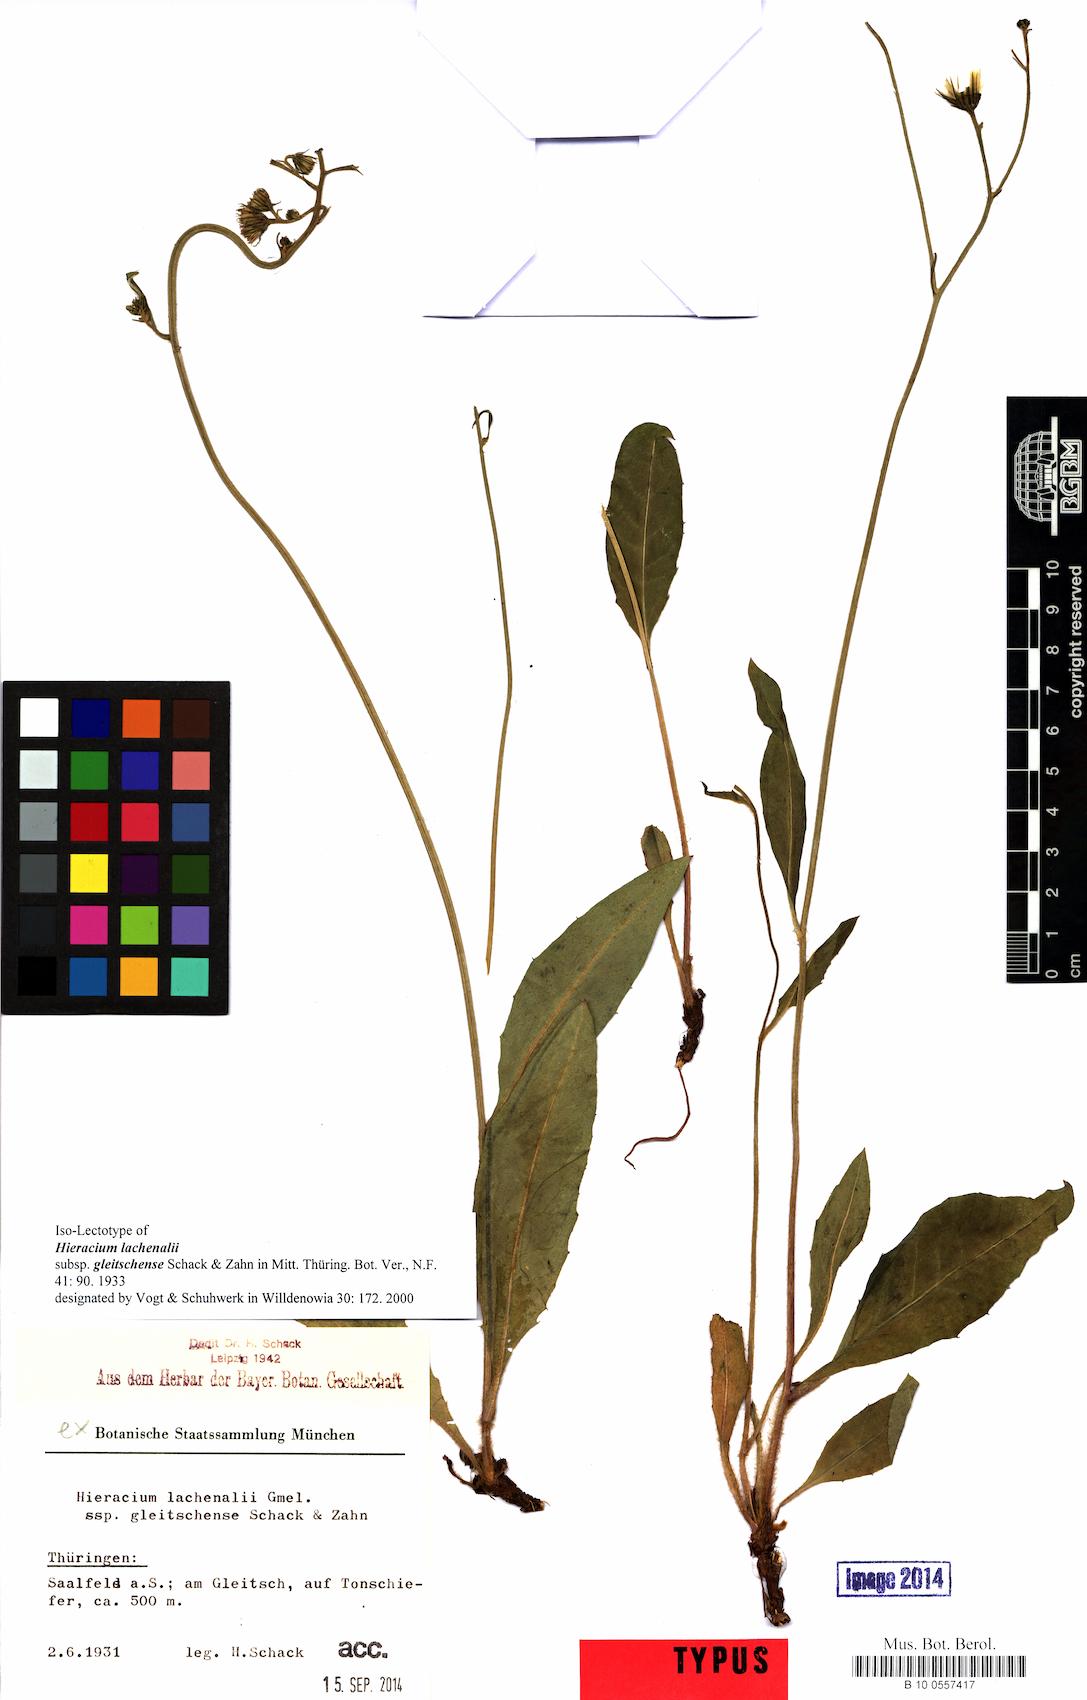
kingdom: Plantae
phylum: Tracheophyta
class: Magnoliopsida
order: Asterales
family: Asteraceae
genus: Hieracium
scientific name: Hieracium lachenalii
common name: Common hawkweed
